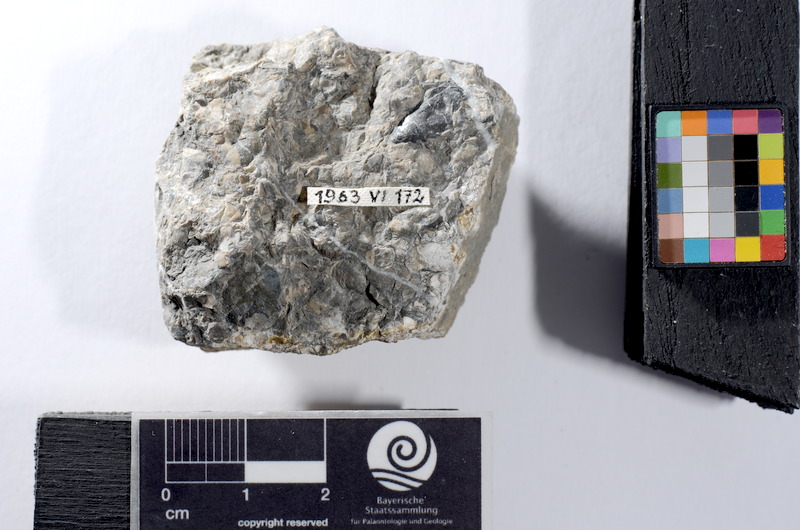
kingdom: Animalia
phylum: Chordata
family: Saurichthyidae
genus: Saurichthys
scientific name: Saurichthys
